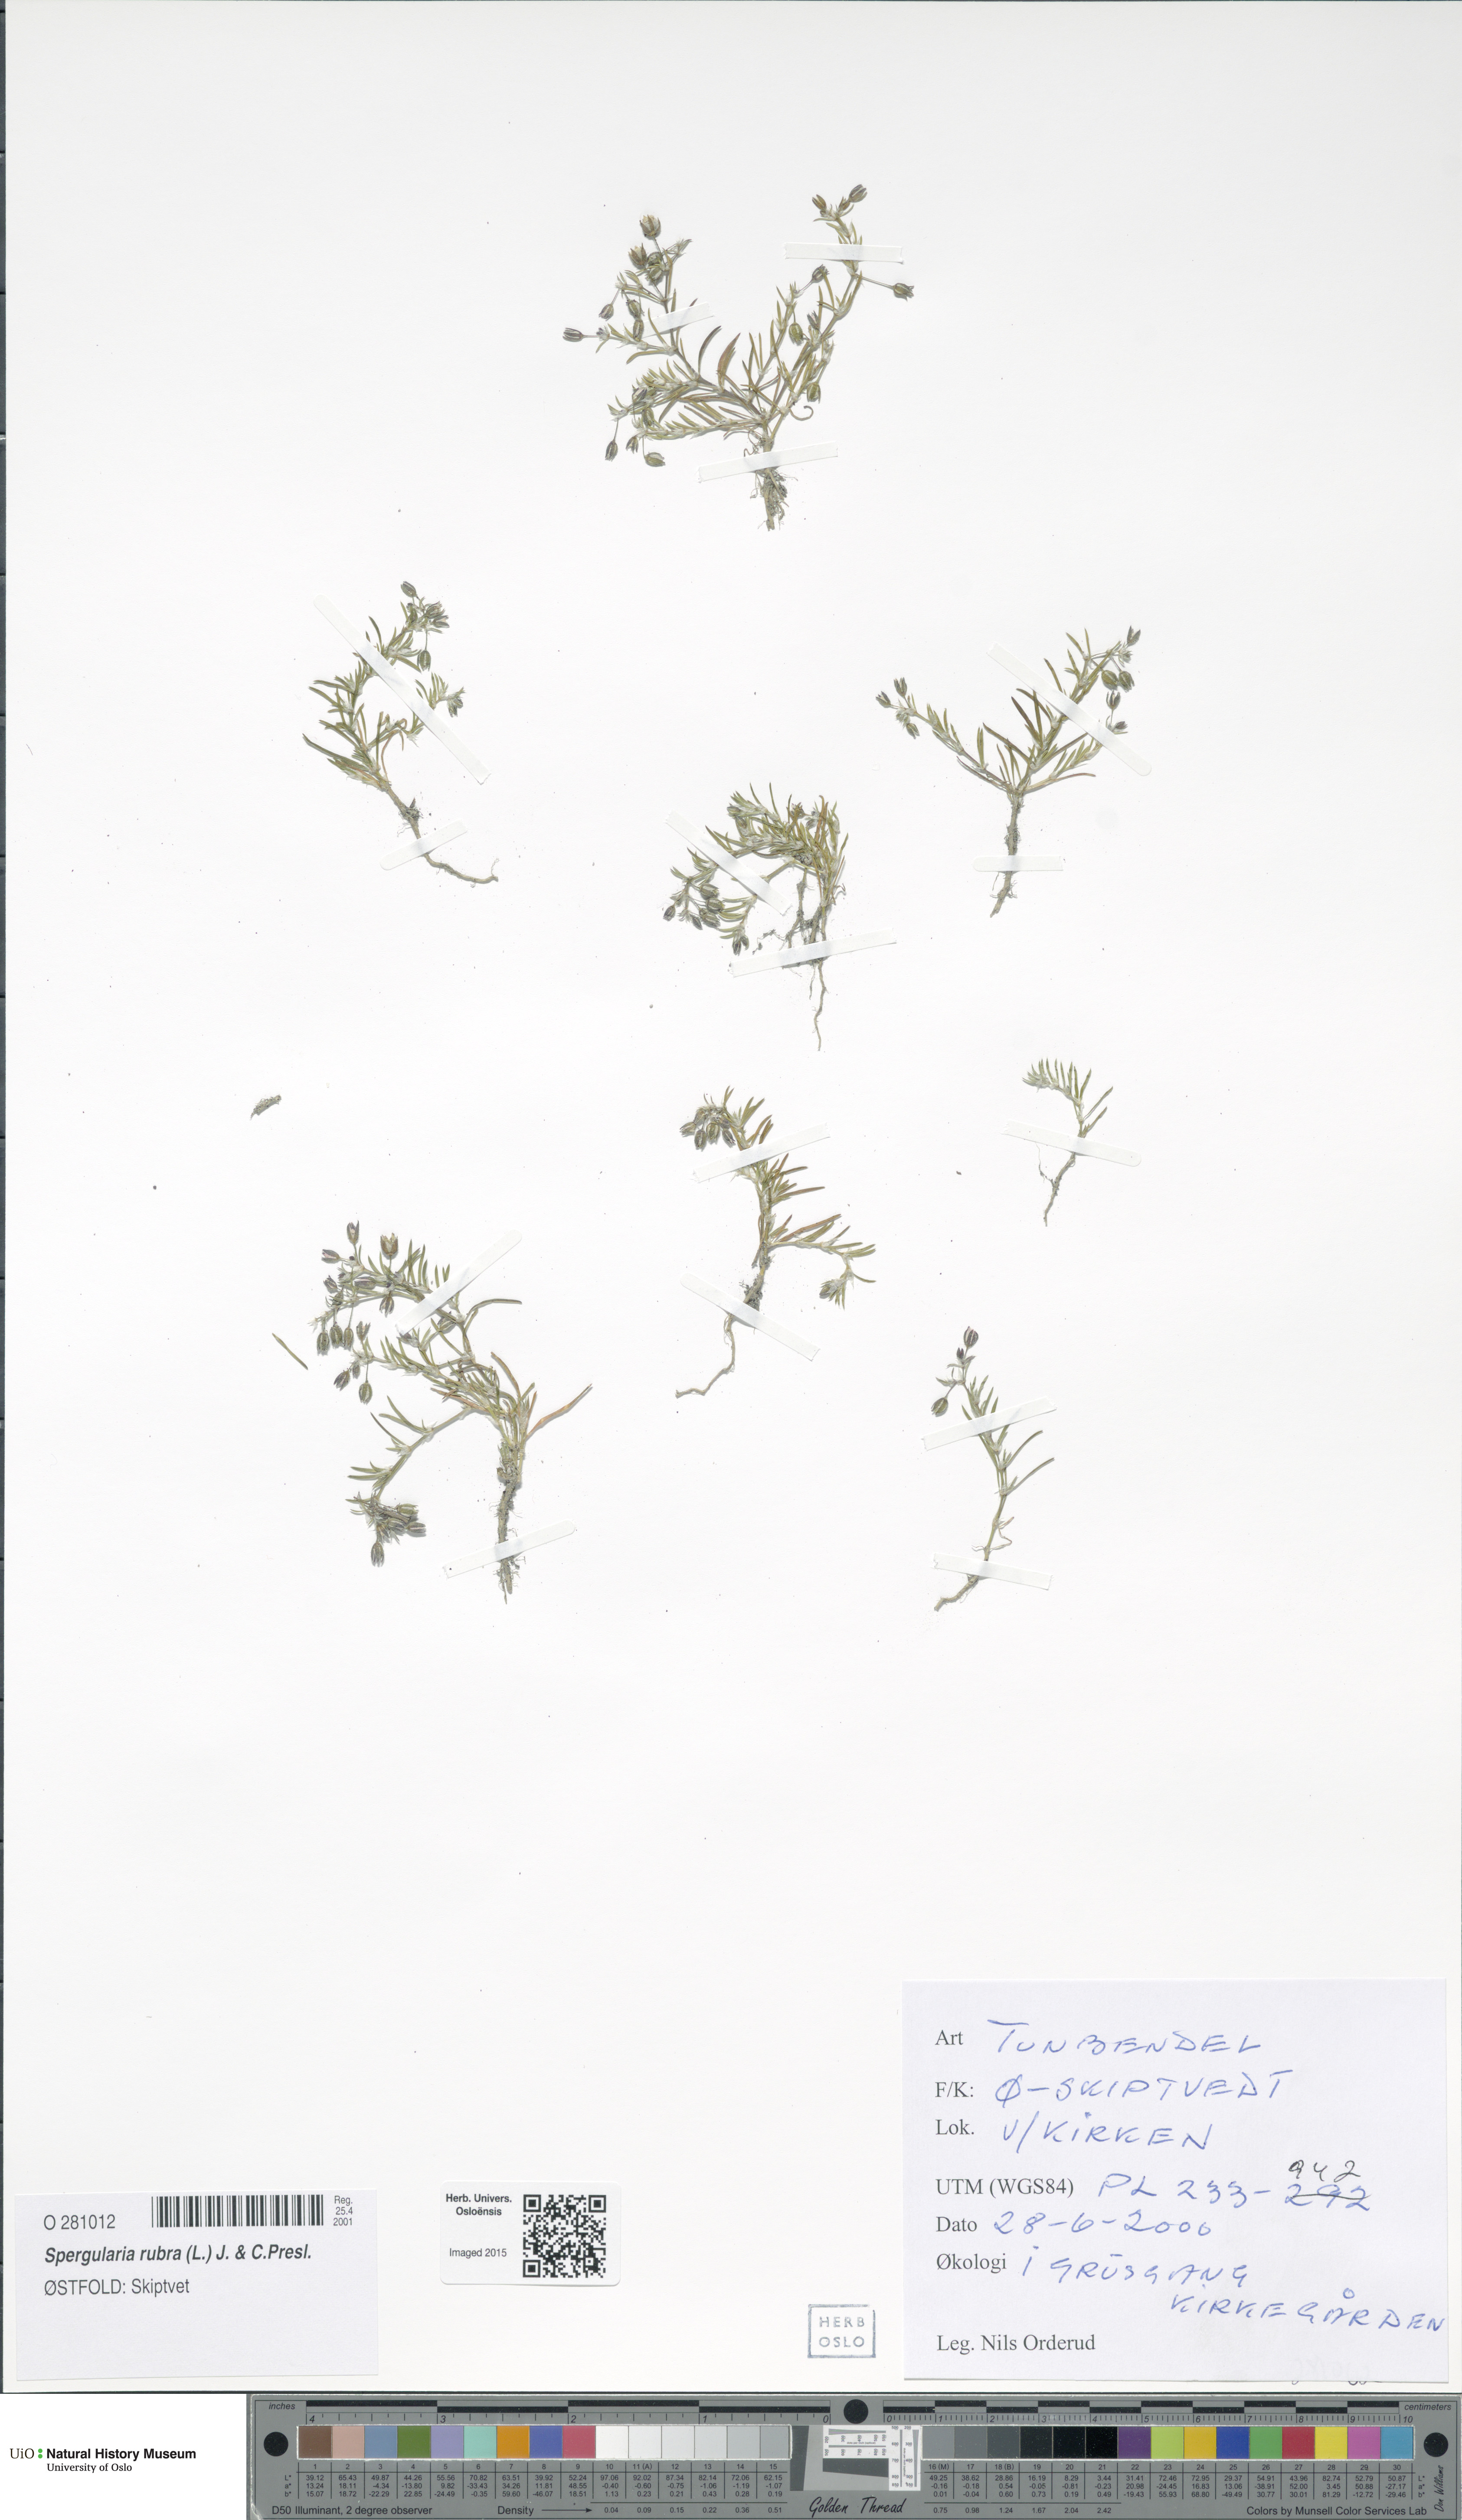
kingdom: Plantae
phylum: Tracheophyta
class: Magnoliopsida
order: Caryophyllales
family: Caryophyllaceae
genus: Spergularia
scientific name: Spergularia rubra
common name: Red sand-spurrey
